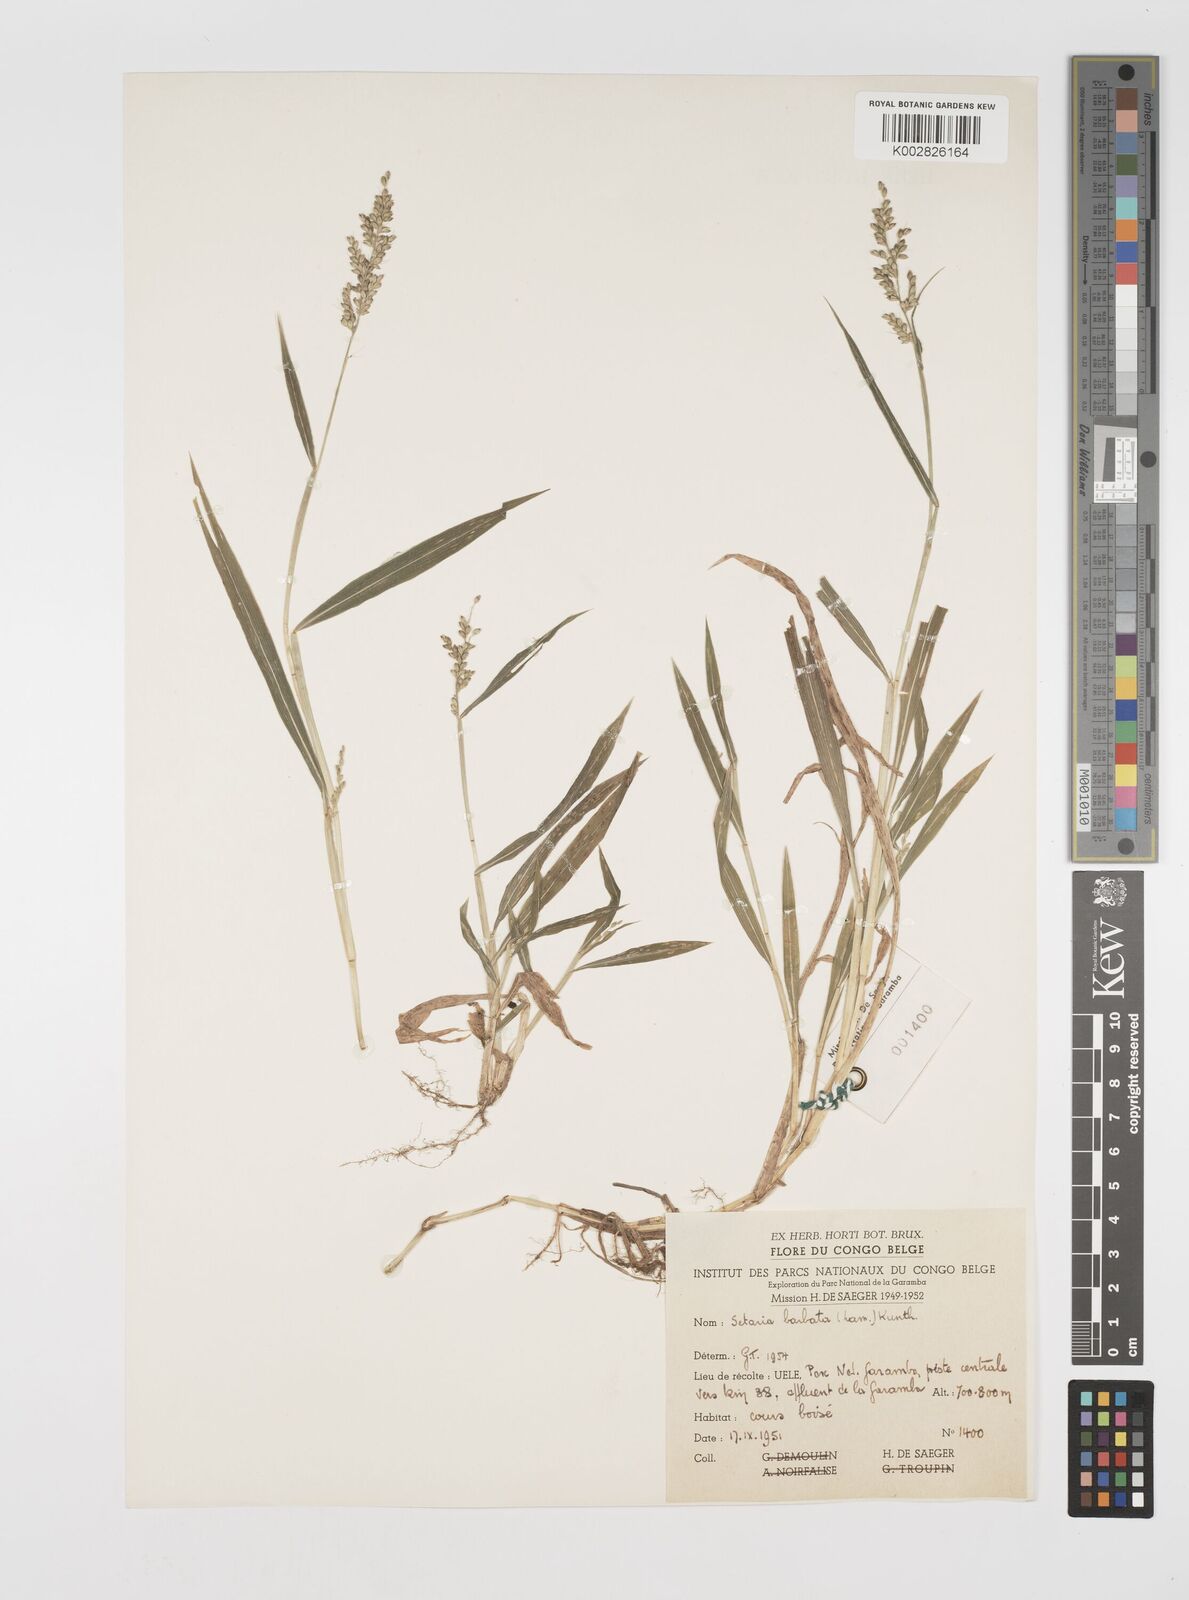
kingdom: Plantae
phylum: Tracheophyta
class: Liliopsida
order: Poales
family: Poaceae
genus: Setaria
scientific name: Setaria barbata
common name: East indian bristlegrass
